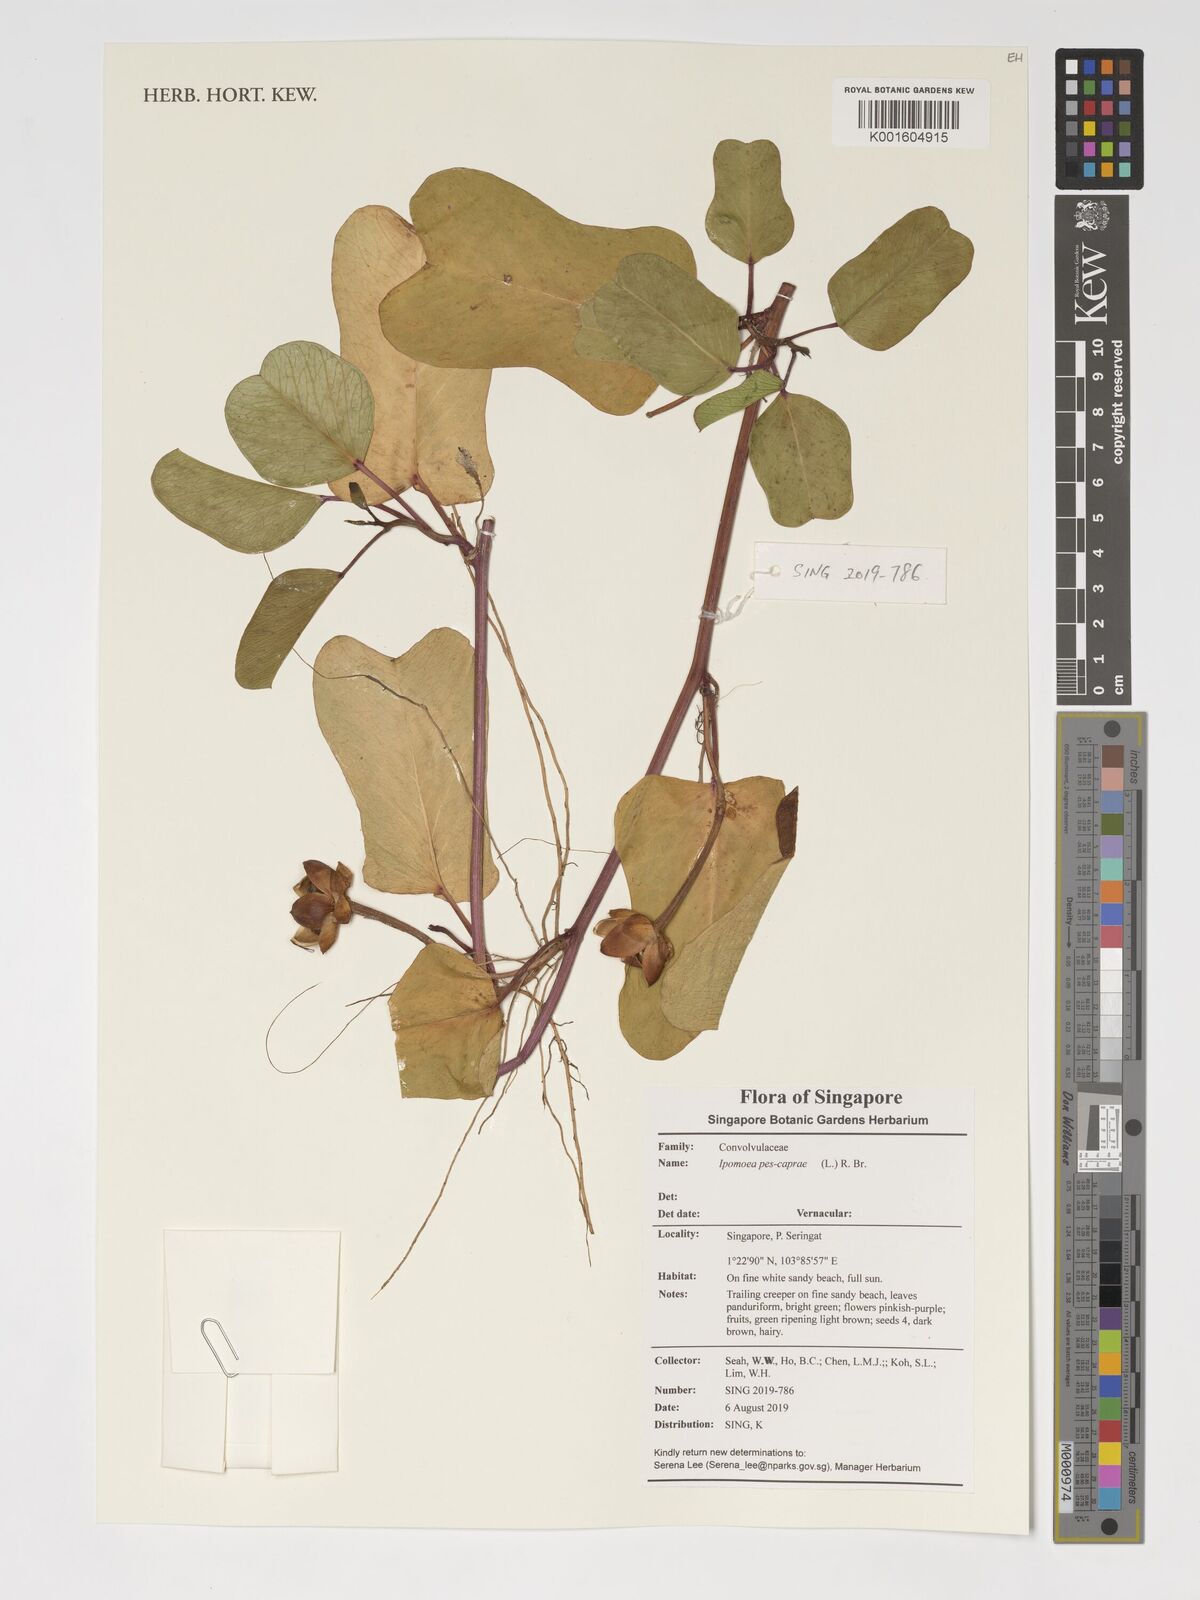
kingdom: Plantae
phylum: Tracheophyta
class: Magnoliopsida
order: Solanales
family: Convolvulaceae
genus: Ipomoea
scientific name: Ipomoea pes-caprae
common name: Beach morning glory
